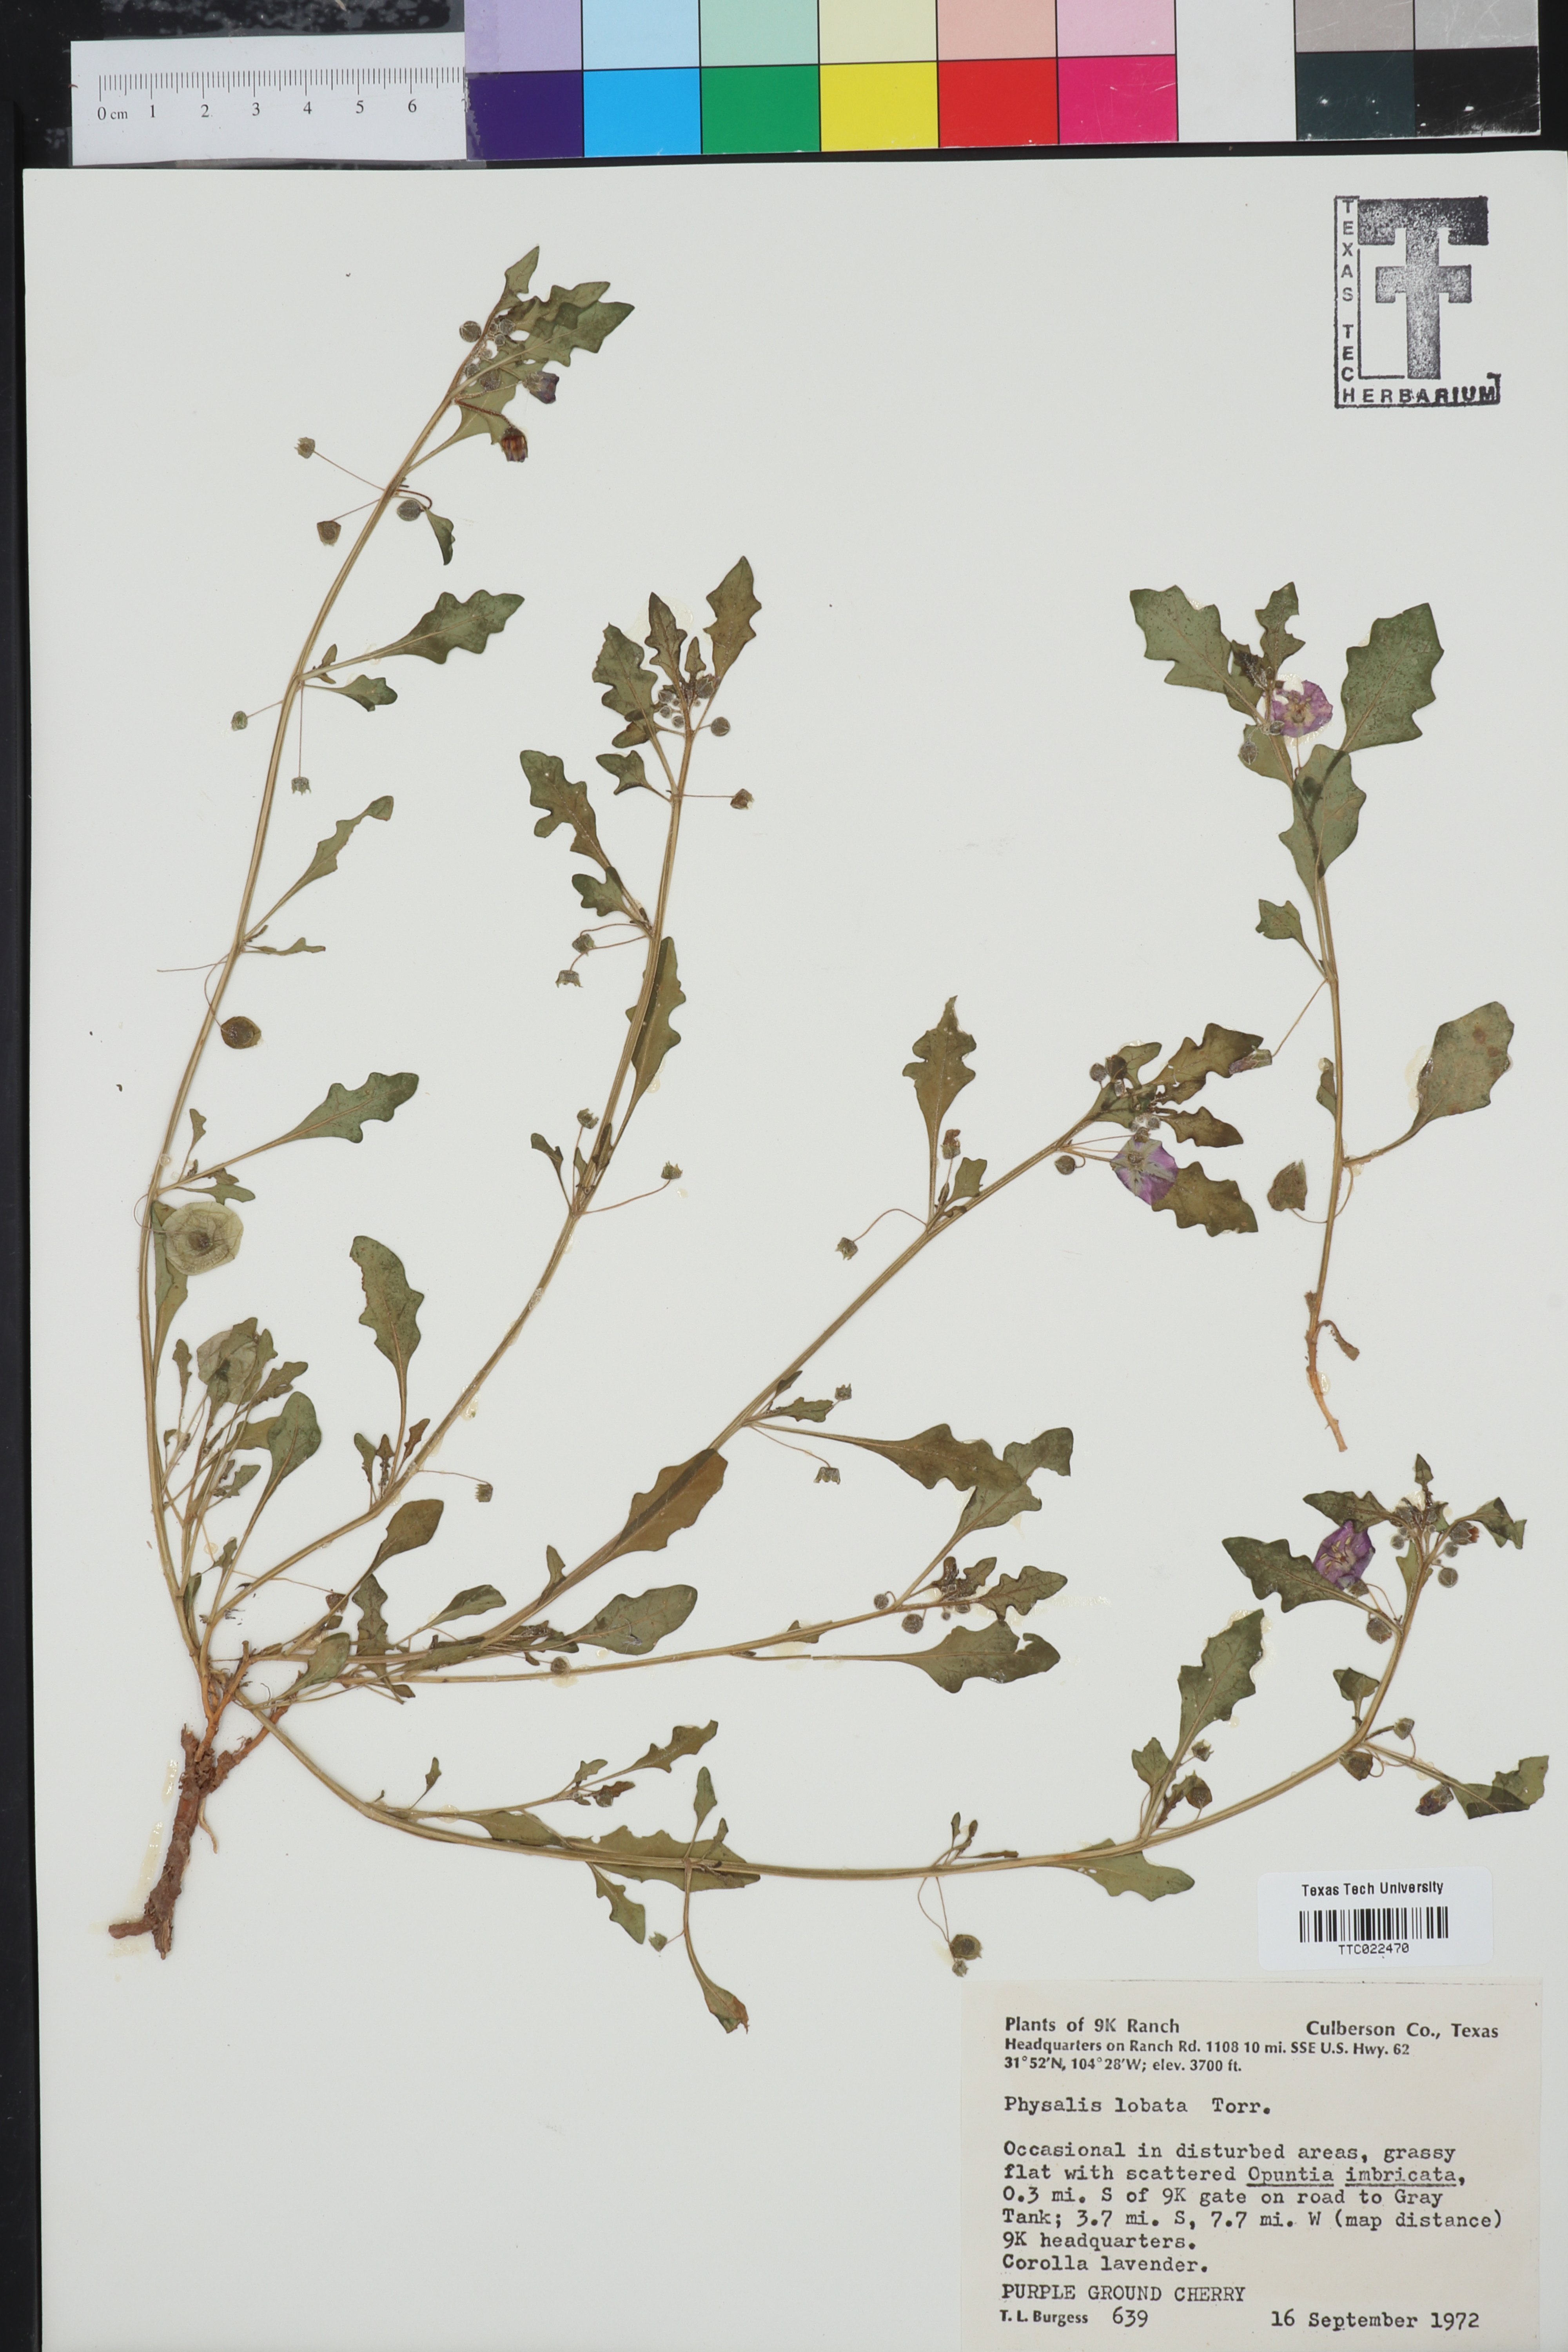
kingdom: Plantae
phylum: Tracheophyta
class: Magnoliopsida
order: Solanales
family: Solanaceae
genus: Quincula
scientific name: Quincula lobata
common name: Purple-ground-cherry
